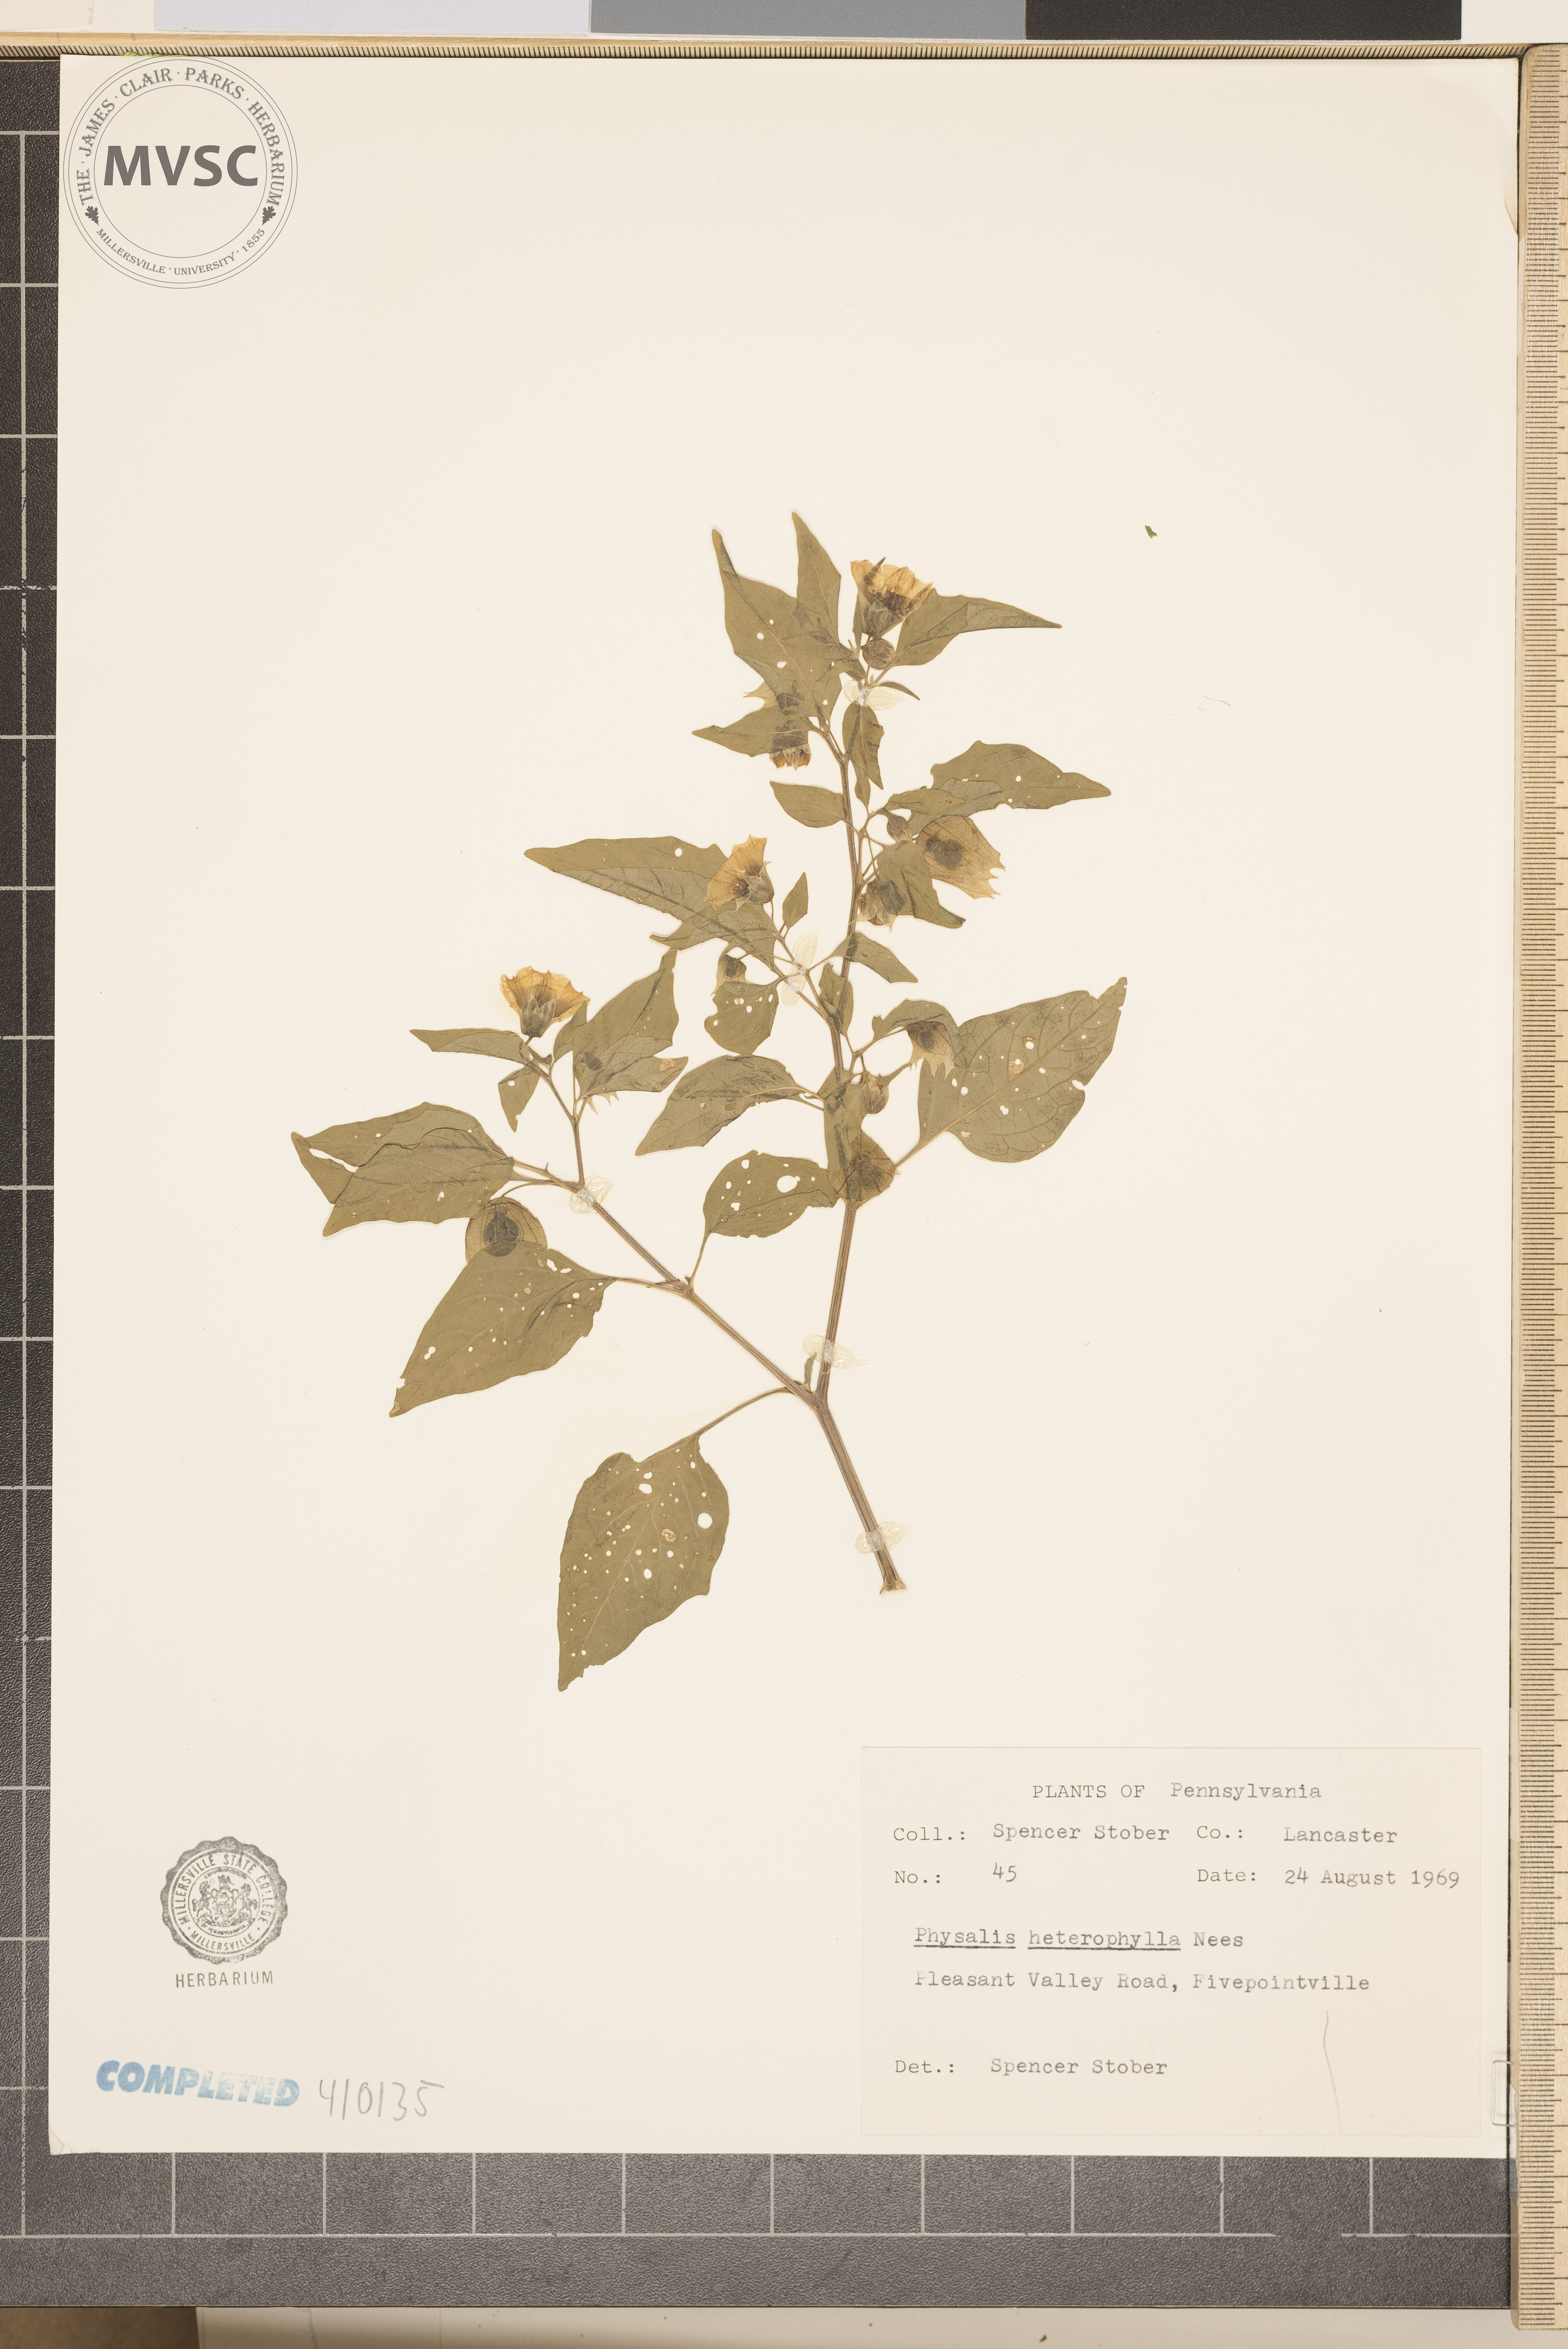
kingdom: Plantae
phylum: Tracheophyta
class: Magnoliopsida
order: Solanales
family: Solanaceae
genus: Physalis
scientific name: Physalis heterophylla
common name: Clammy ground-cherry
